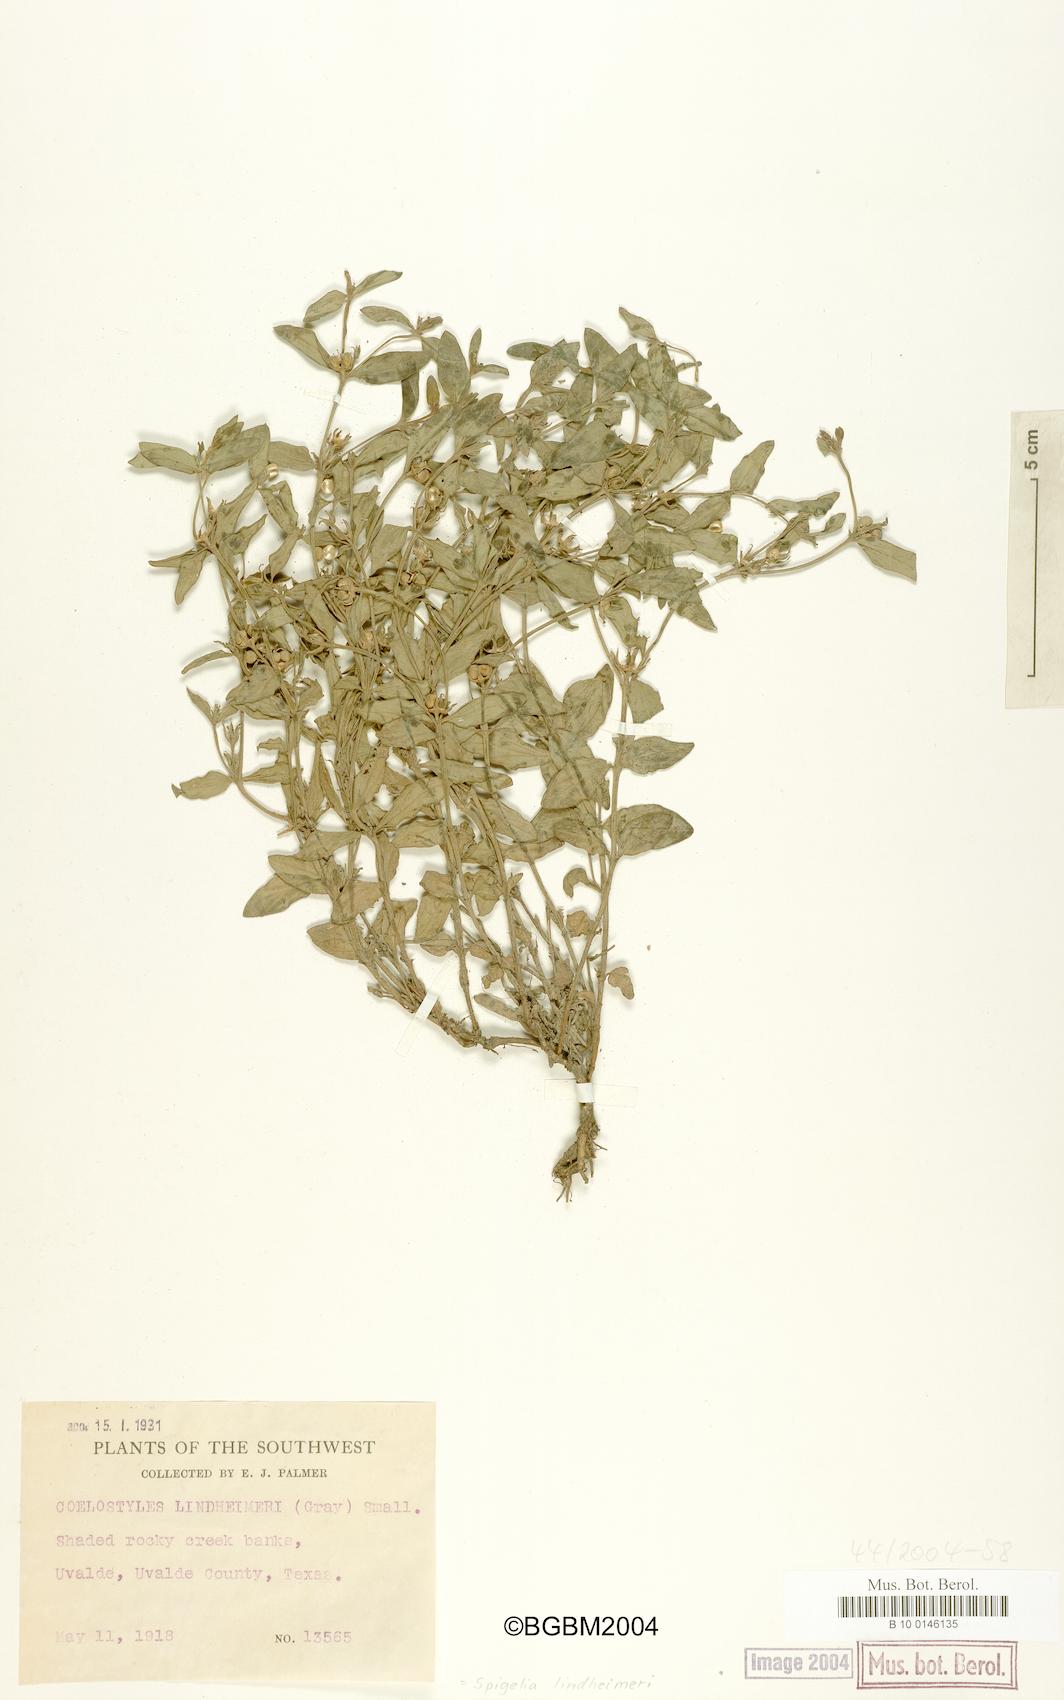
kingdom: Plantae
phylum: Tracheophyta
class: Magnoliopsida
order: Gentianales
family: Loganiaceae
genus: Spigelia
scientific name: Spigelia hedyotidea
